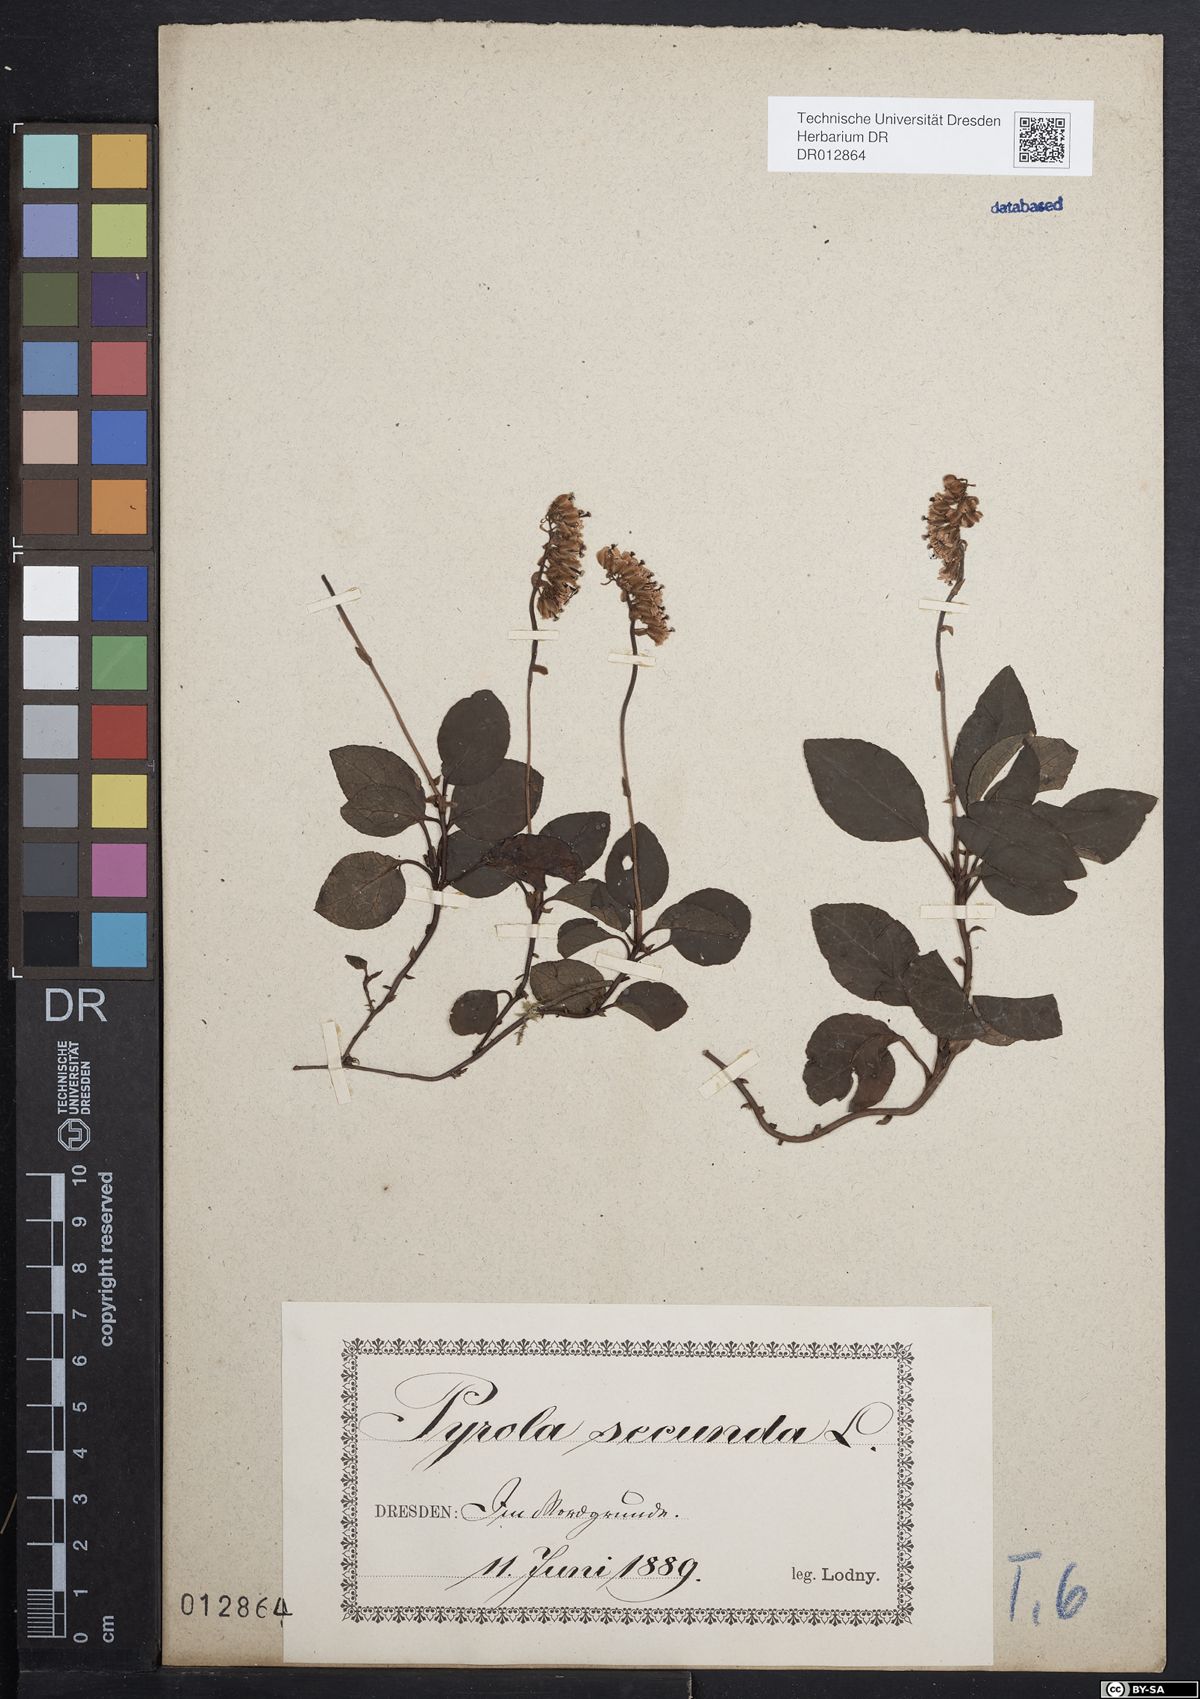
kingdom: Plantae
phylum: Tracheophyta
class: Magnoliopsida
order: Ericales
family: Ericaceae
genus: Orthilia
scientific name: Orthilia secunda
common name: One-sided orthilia
